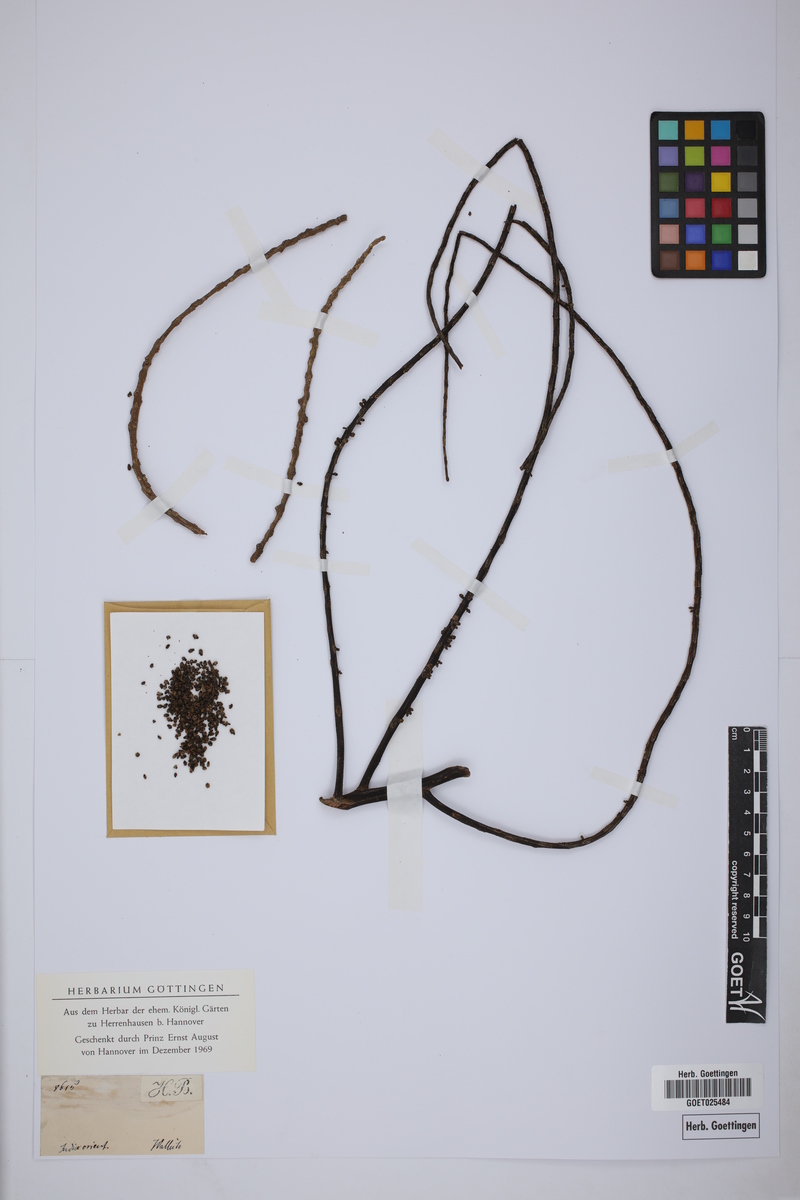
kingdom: Plantae
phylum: Tracheophyta
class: Liliopsida
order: Arecales
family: Arecaceae
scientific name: Arecaceae
